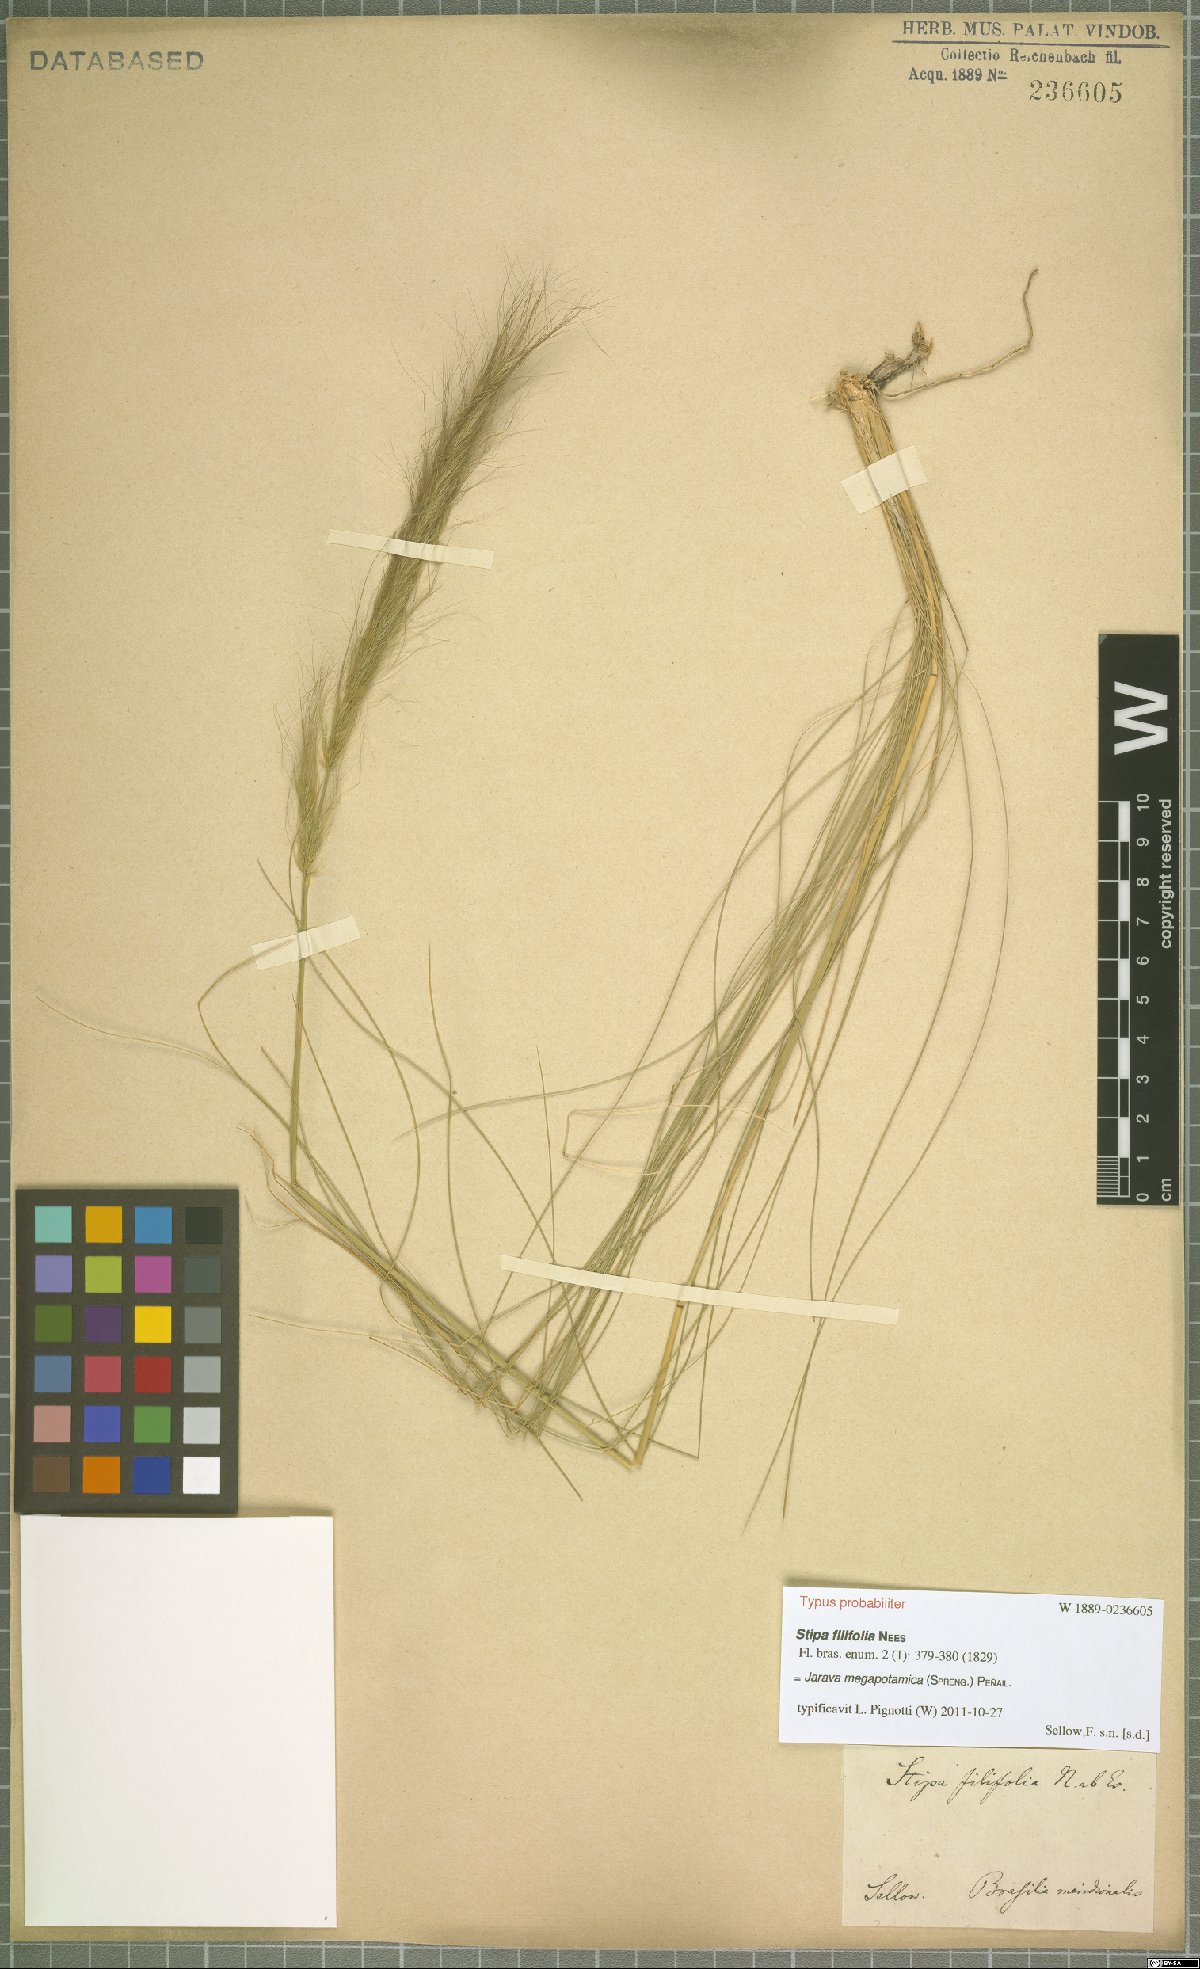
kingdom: Plantae
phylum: Tracheophyta
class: Liliopsida
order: Poales
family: Poaceae
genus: Aristida
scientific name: Aristida megapotamica
